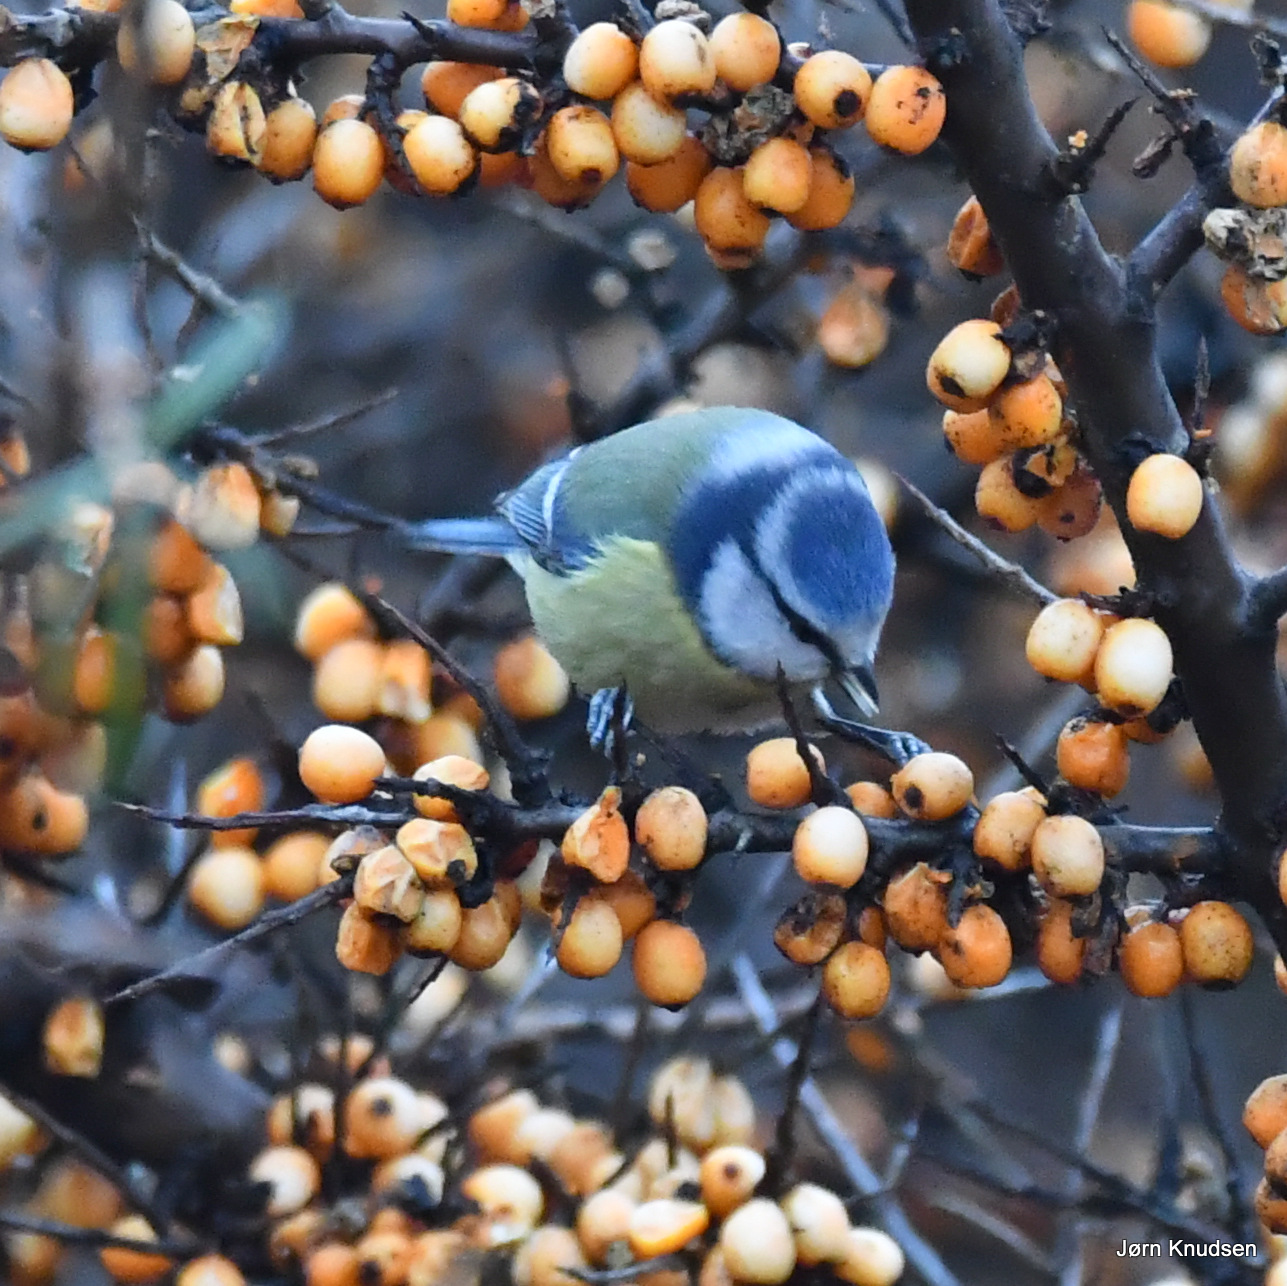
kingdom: Animalia
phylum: Chordata
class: Aves
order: Passeriformes
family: Paridae
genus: Cyanistes
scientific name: Cyanistes caeruleus
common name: Blåmejse
